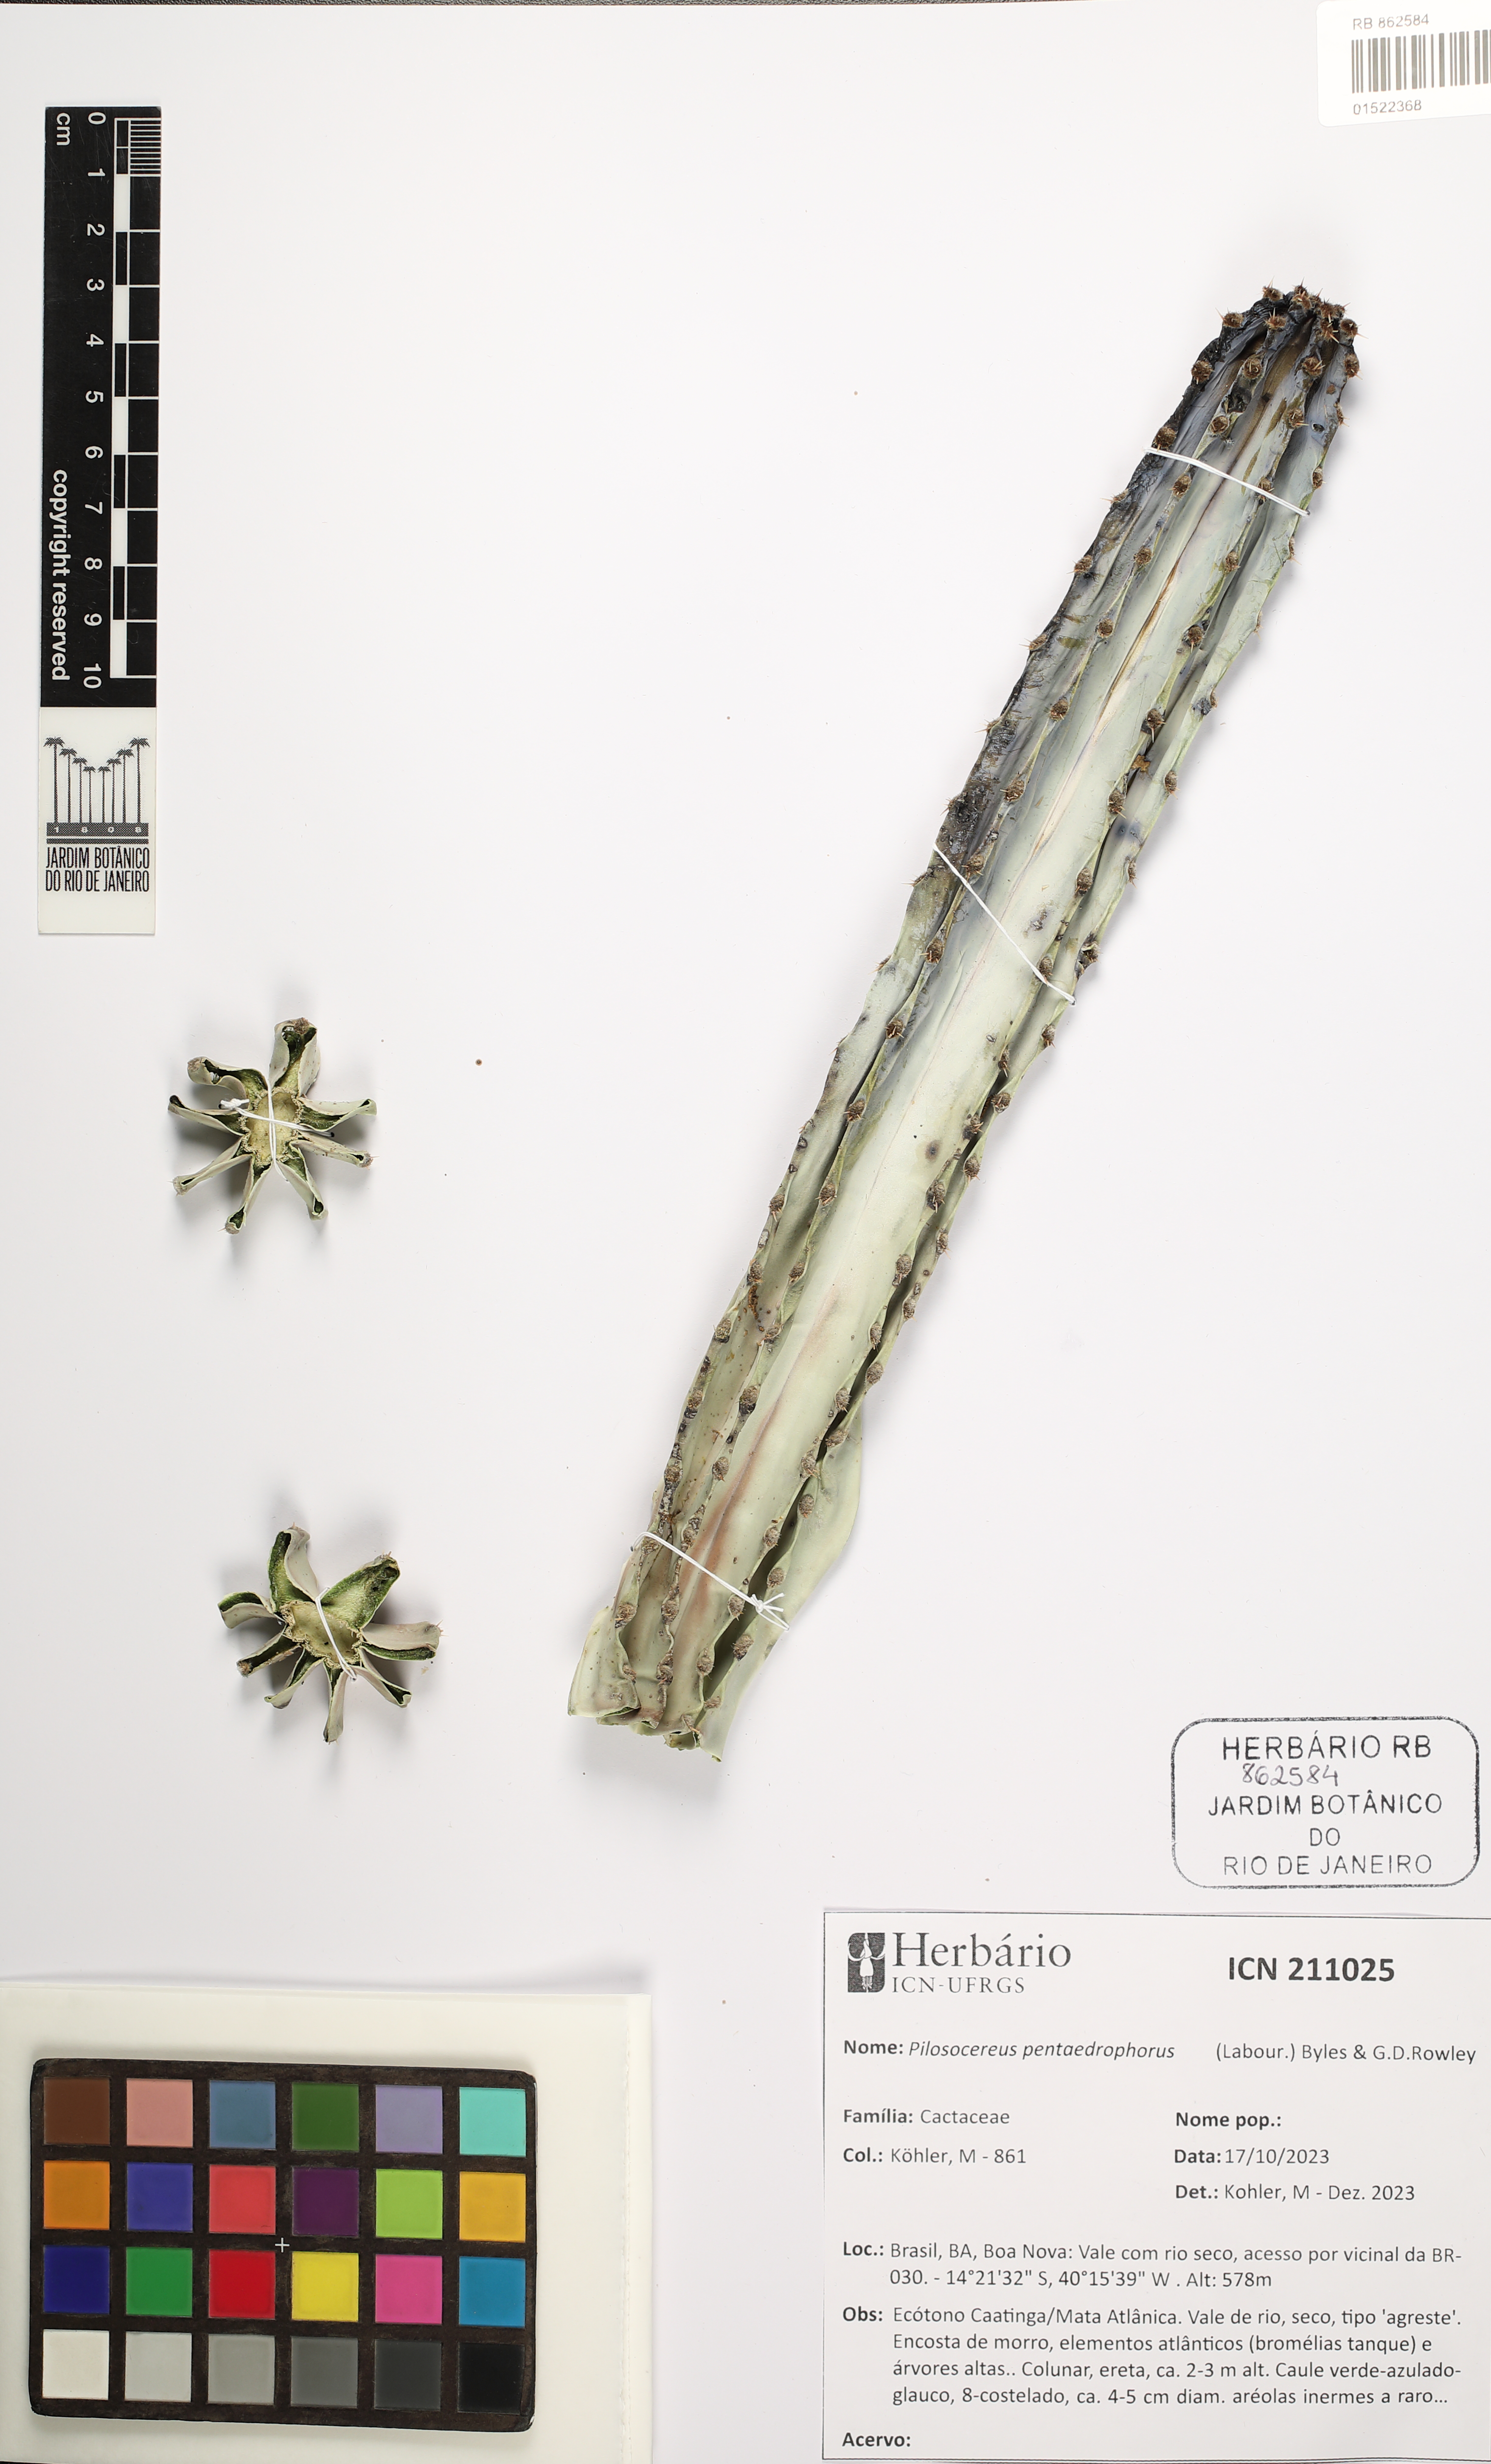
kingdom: Plantae
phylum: Tracheophyta
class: Magnoliopsida
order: Caryophyllales
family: Cactaceae
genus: Pilosocereus
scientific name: Pilosocereus pentaedrophorus
